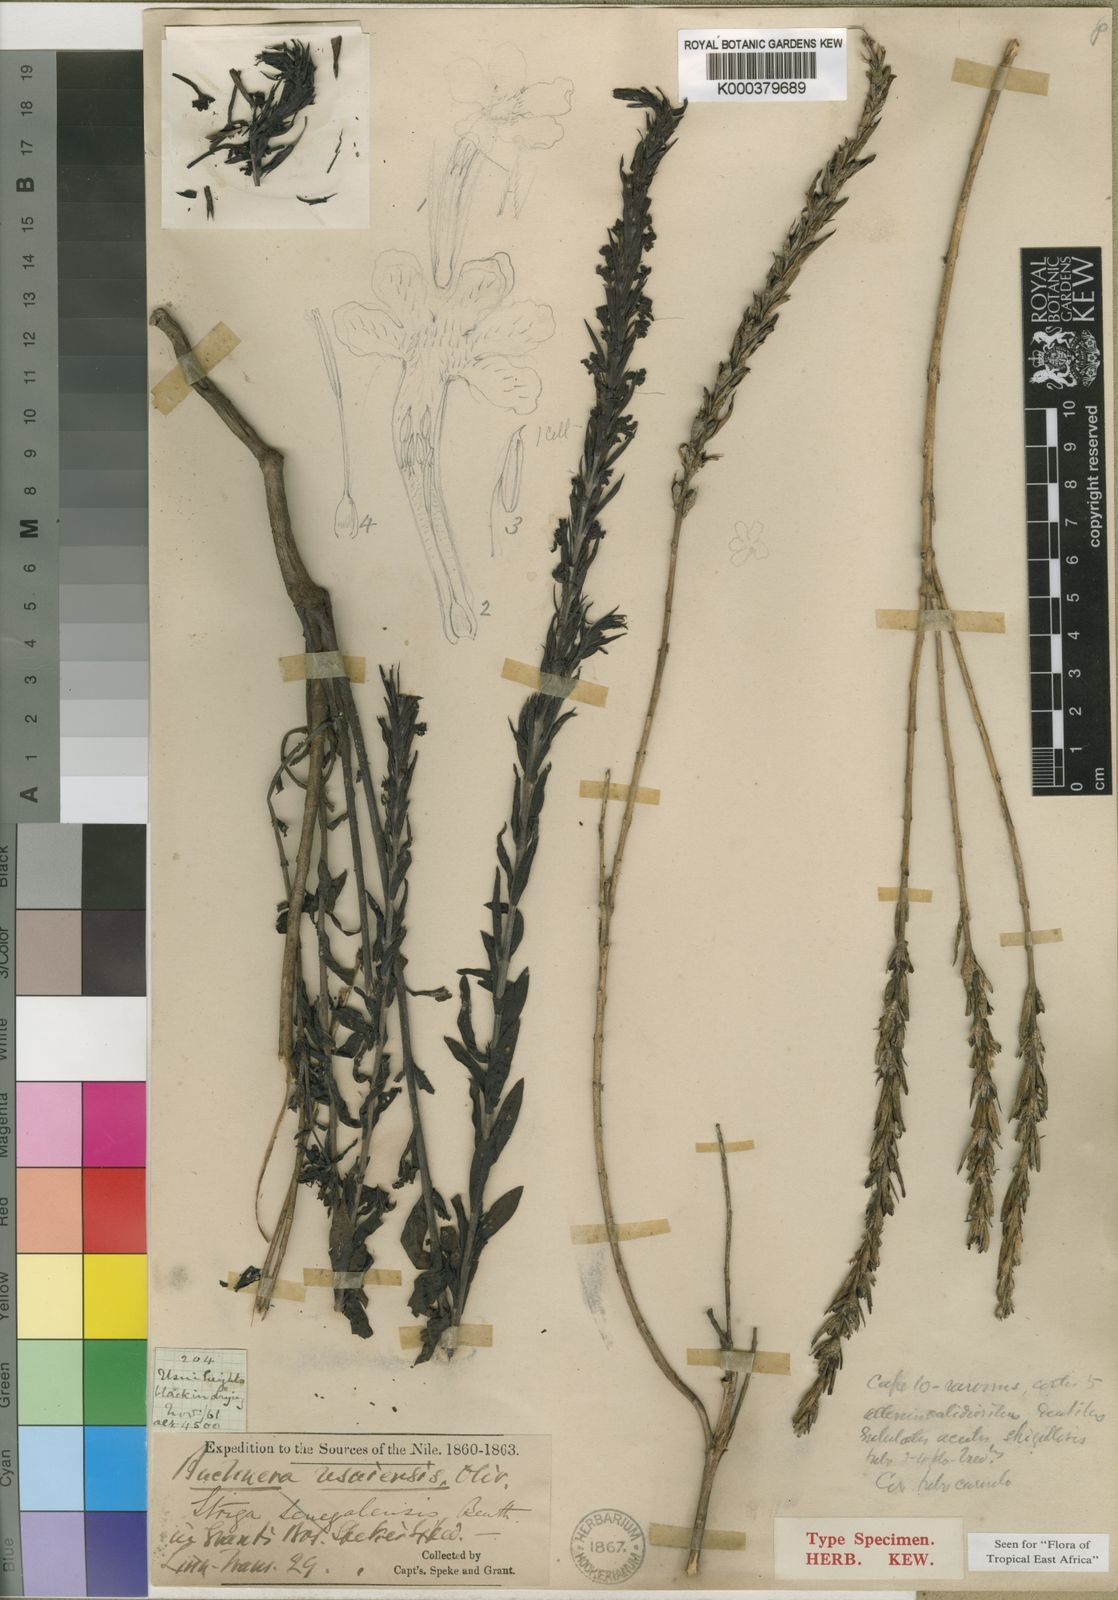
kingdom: Plantae
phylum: Tracheophyta
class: Magnoliopsida
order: Lamiales
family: Orobanchaceae
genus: Buchnera
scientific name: Buchnera usuiensis
